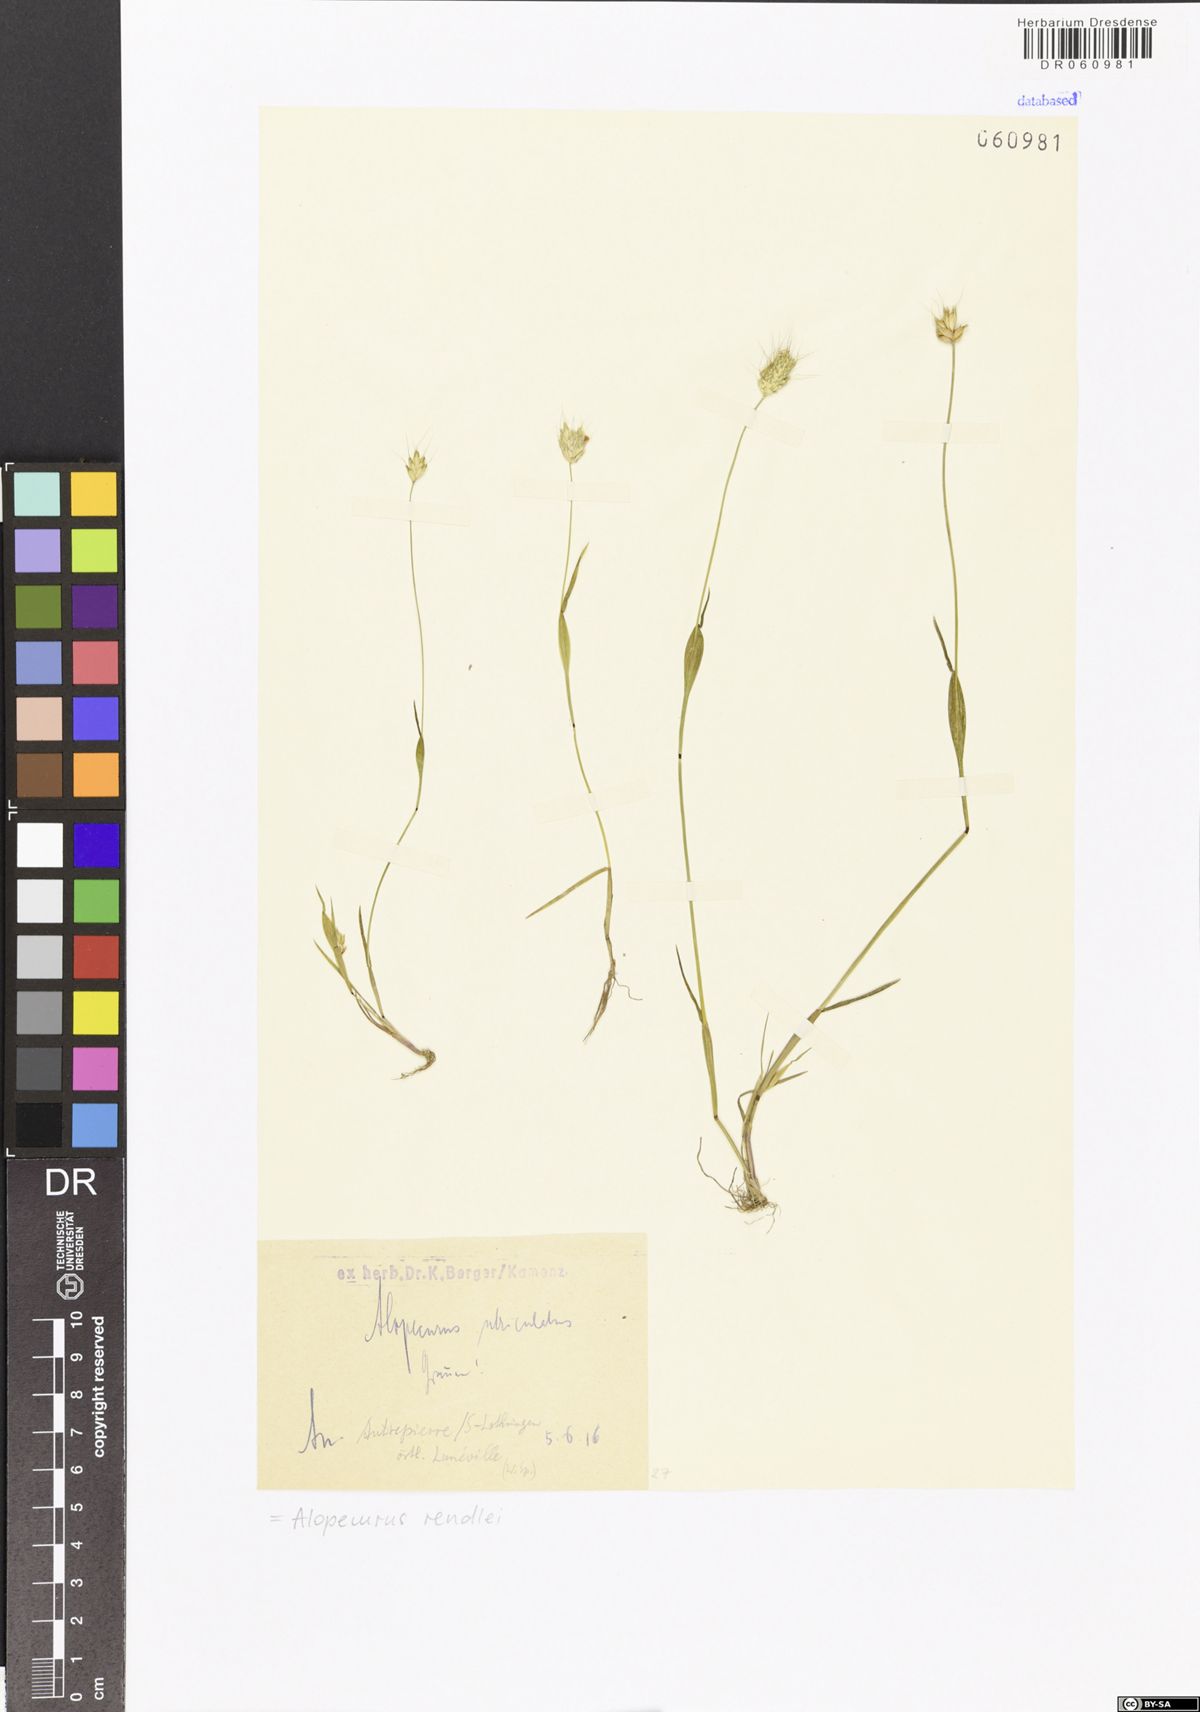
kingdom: Plantae
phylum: Tracheophyta
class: Liliopsida
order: Poales
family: Poaceae
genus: Alopecurus
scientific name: Alopecurus rendlei
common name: Rendle's meadow foxtail
